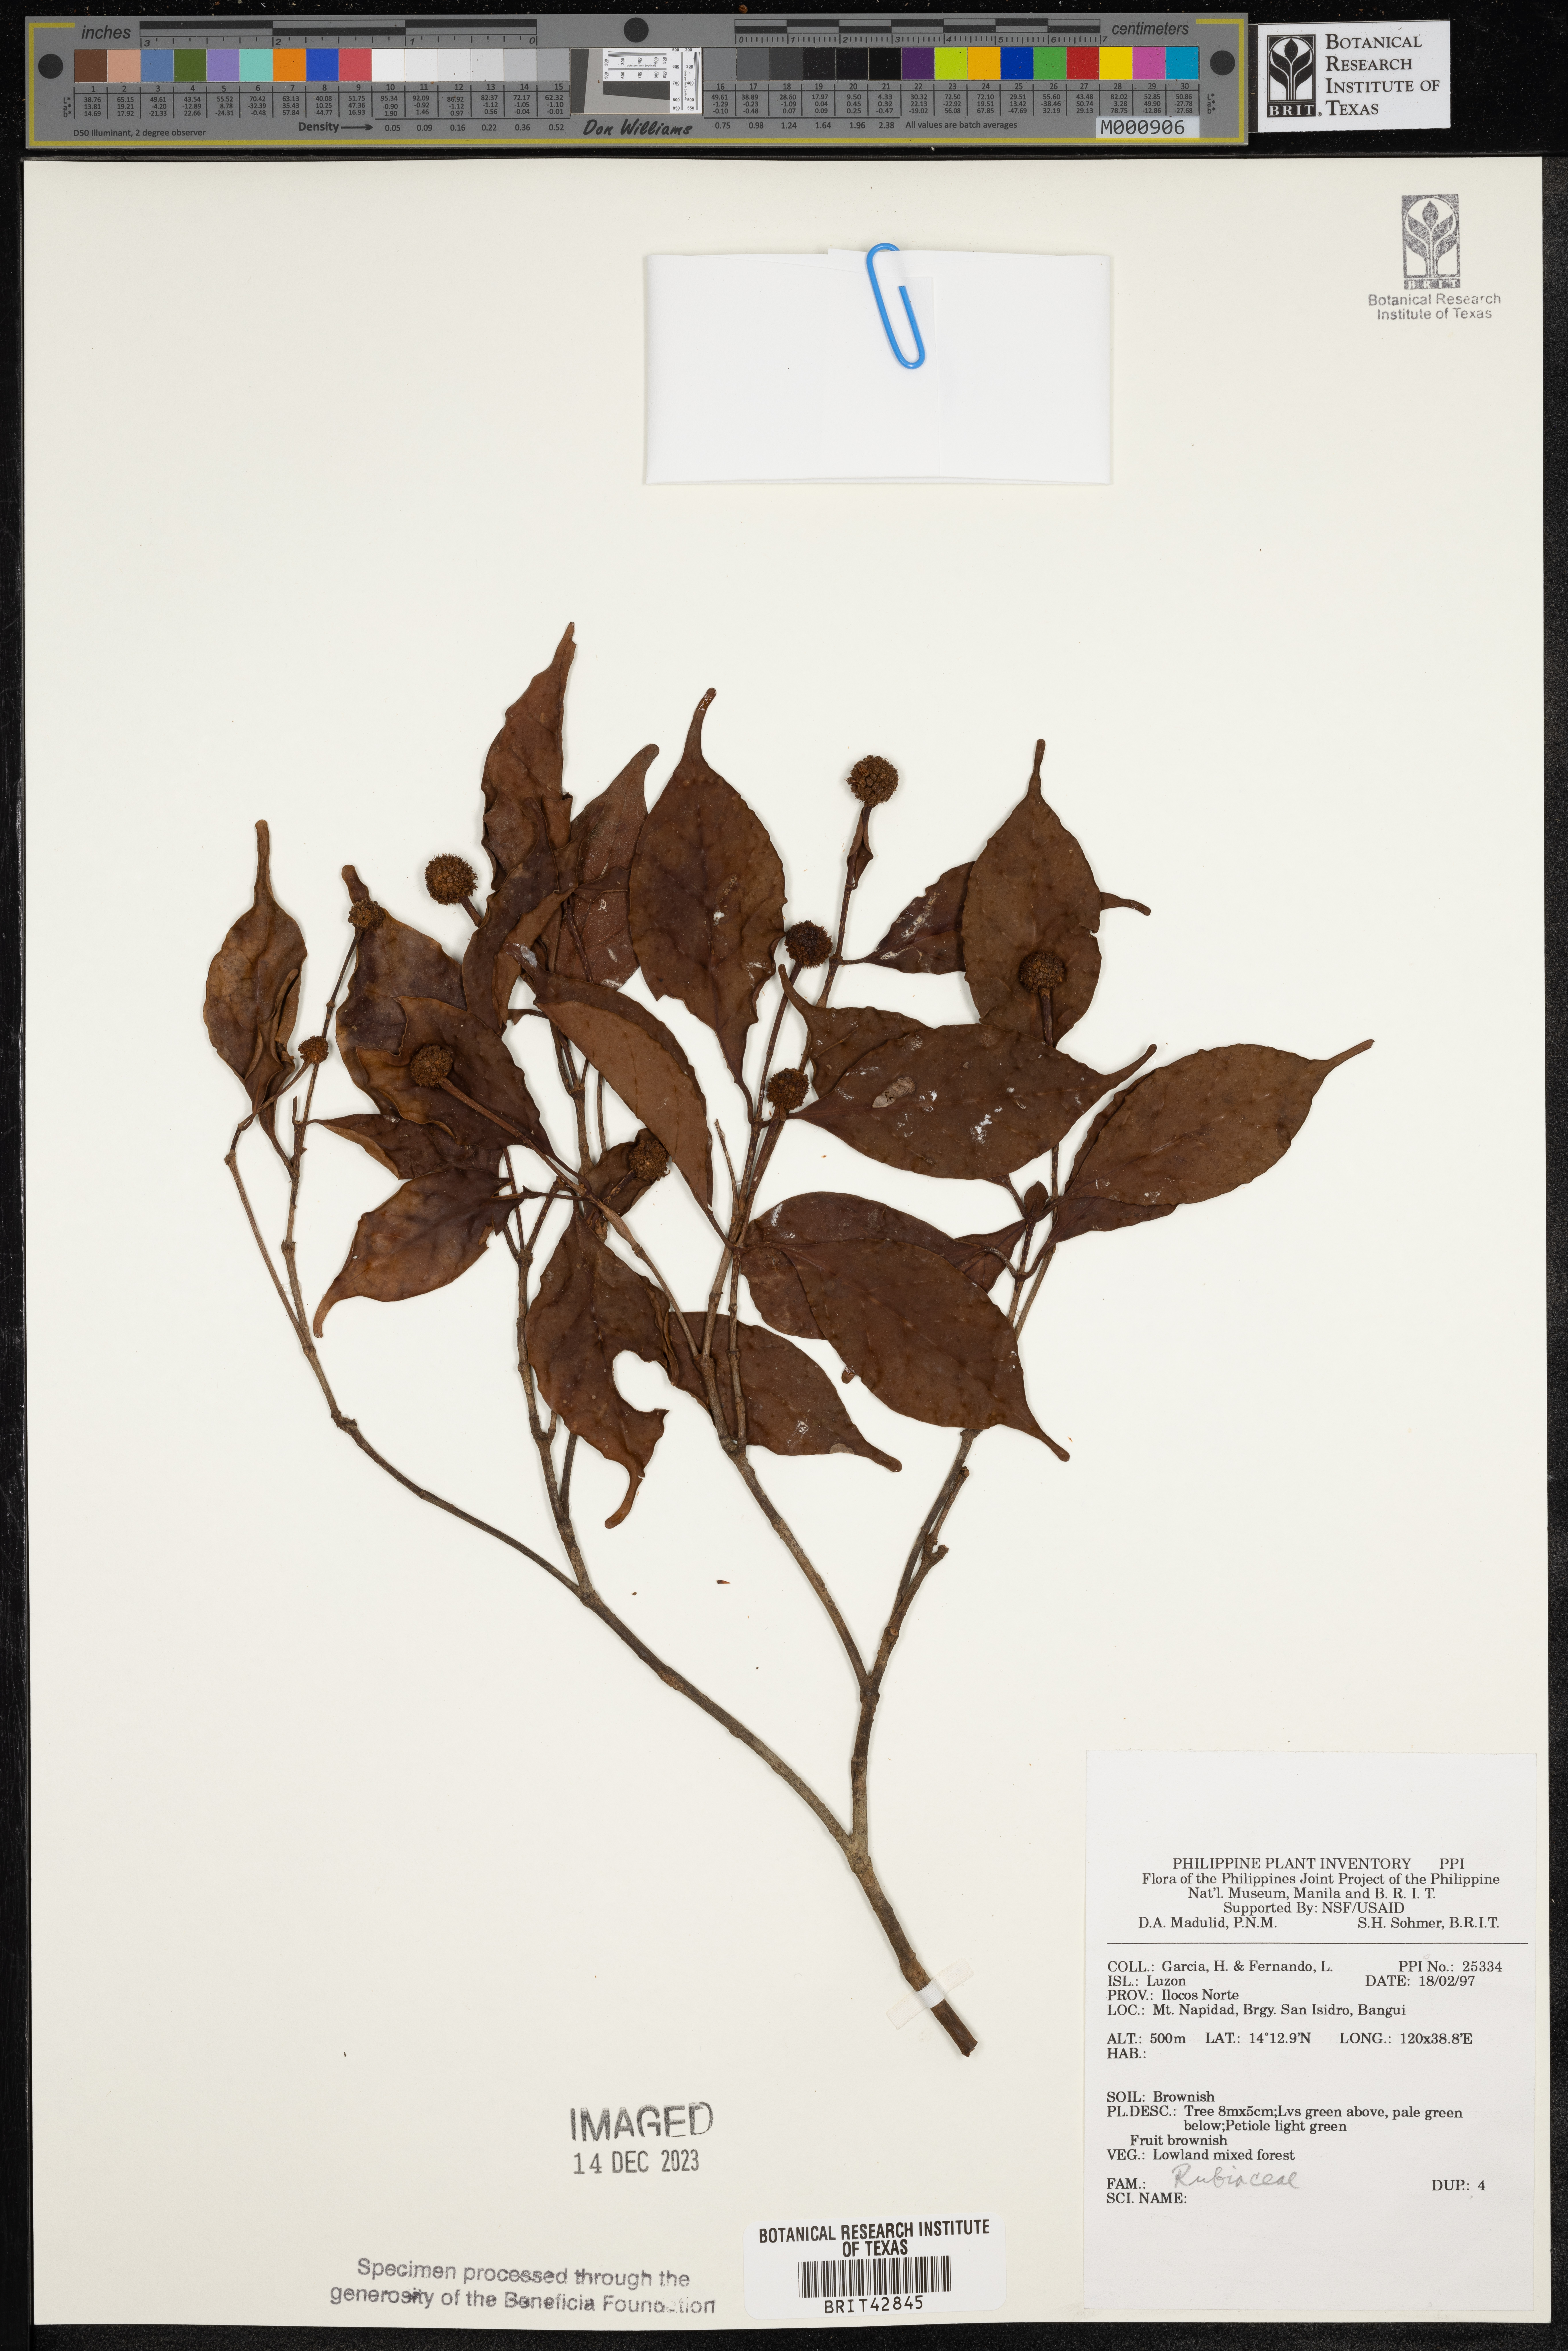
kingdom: Plantae
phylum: Tracheophyta
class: Magnoliopsida
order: Gentianales
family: Rubiaceae
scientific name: Rubiaceae
